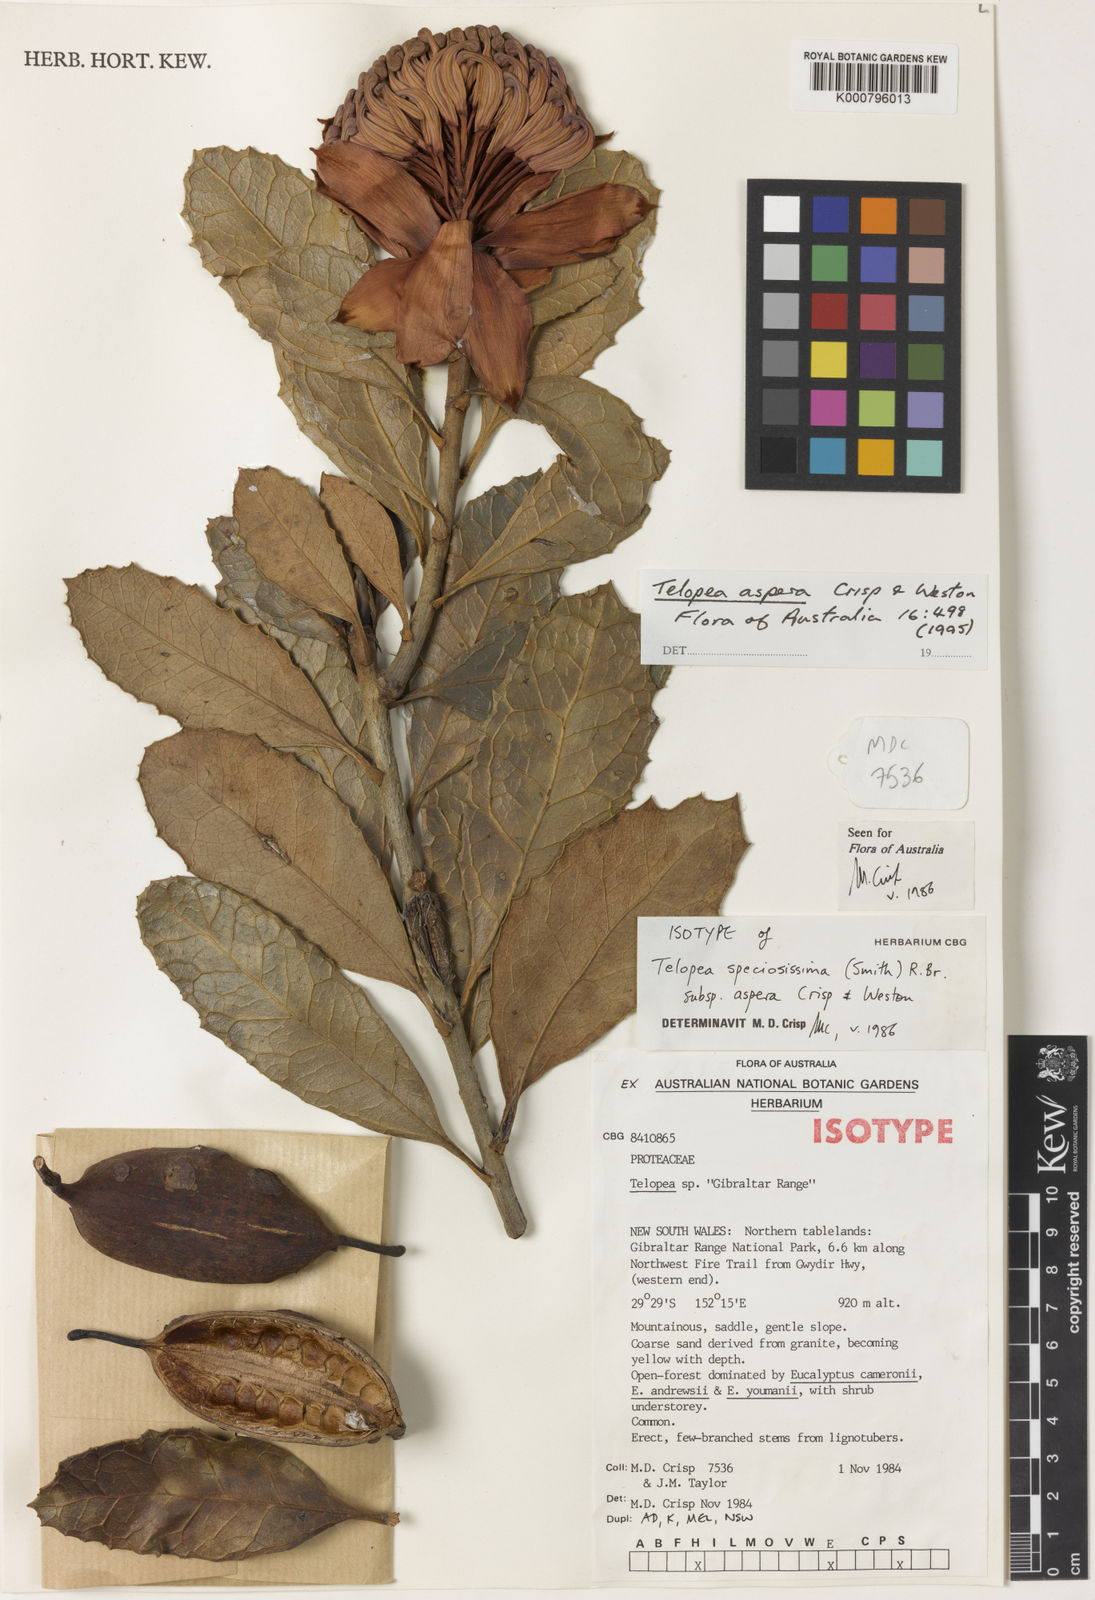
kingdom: Plantae
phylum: Tracheophyta
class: Magnoliopsida
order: Proteales
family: Proteaceae
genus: Telopea
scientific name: Telopea speciosissima
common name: New south wales waratah
